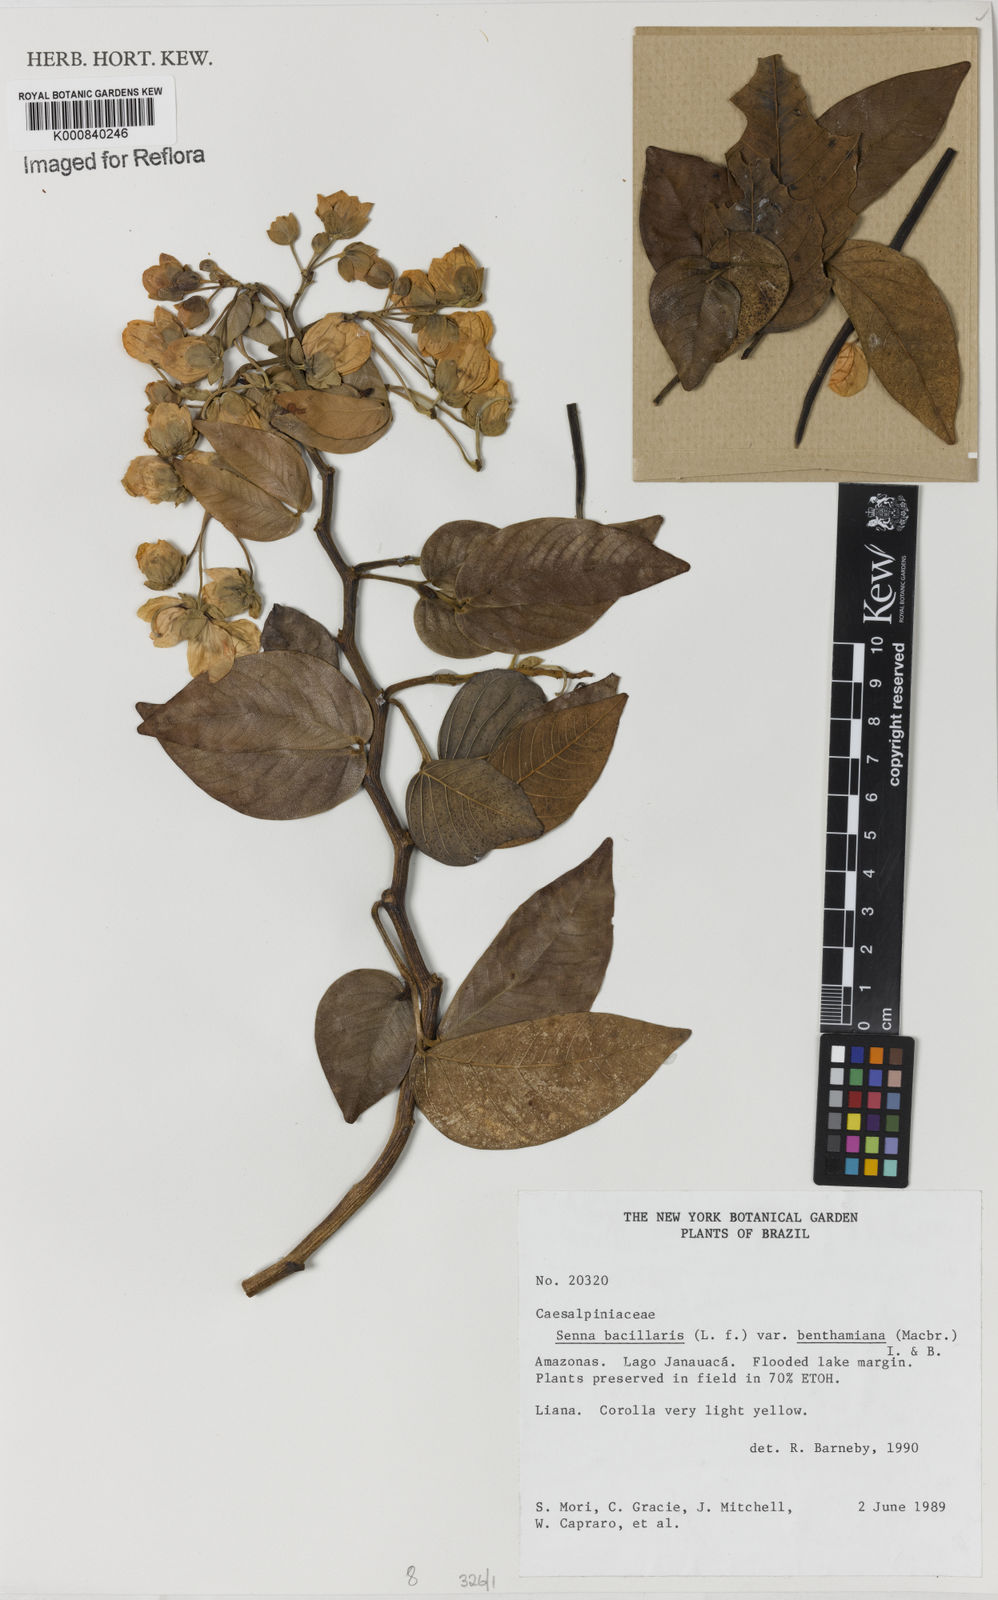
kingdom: Plantae
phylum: Tracheophyta
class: Magnoliopsida
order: Fabales
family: Fabaceae
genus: Senna
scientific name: Senna bacillaris
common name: West indian showertree
